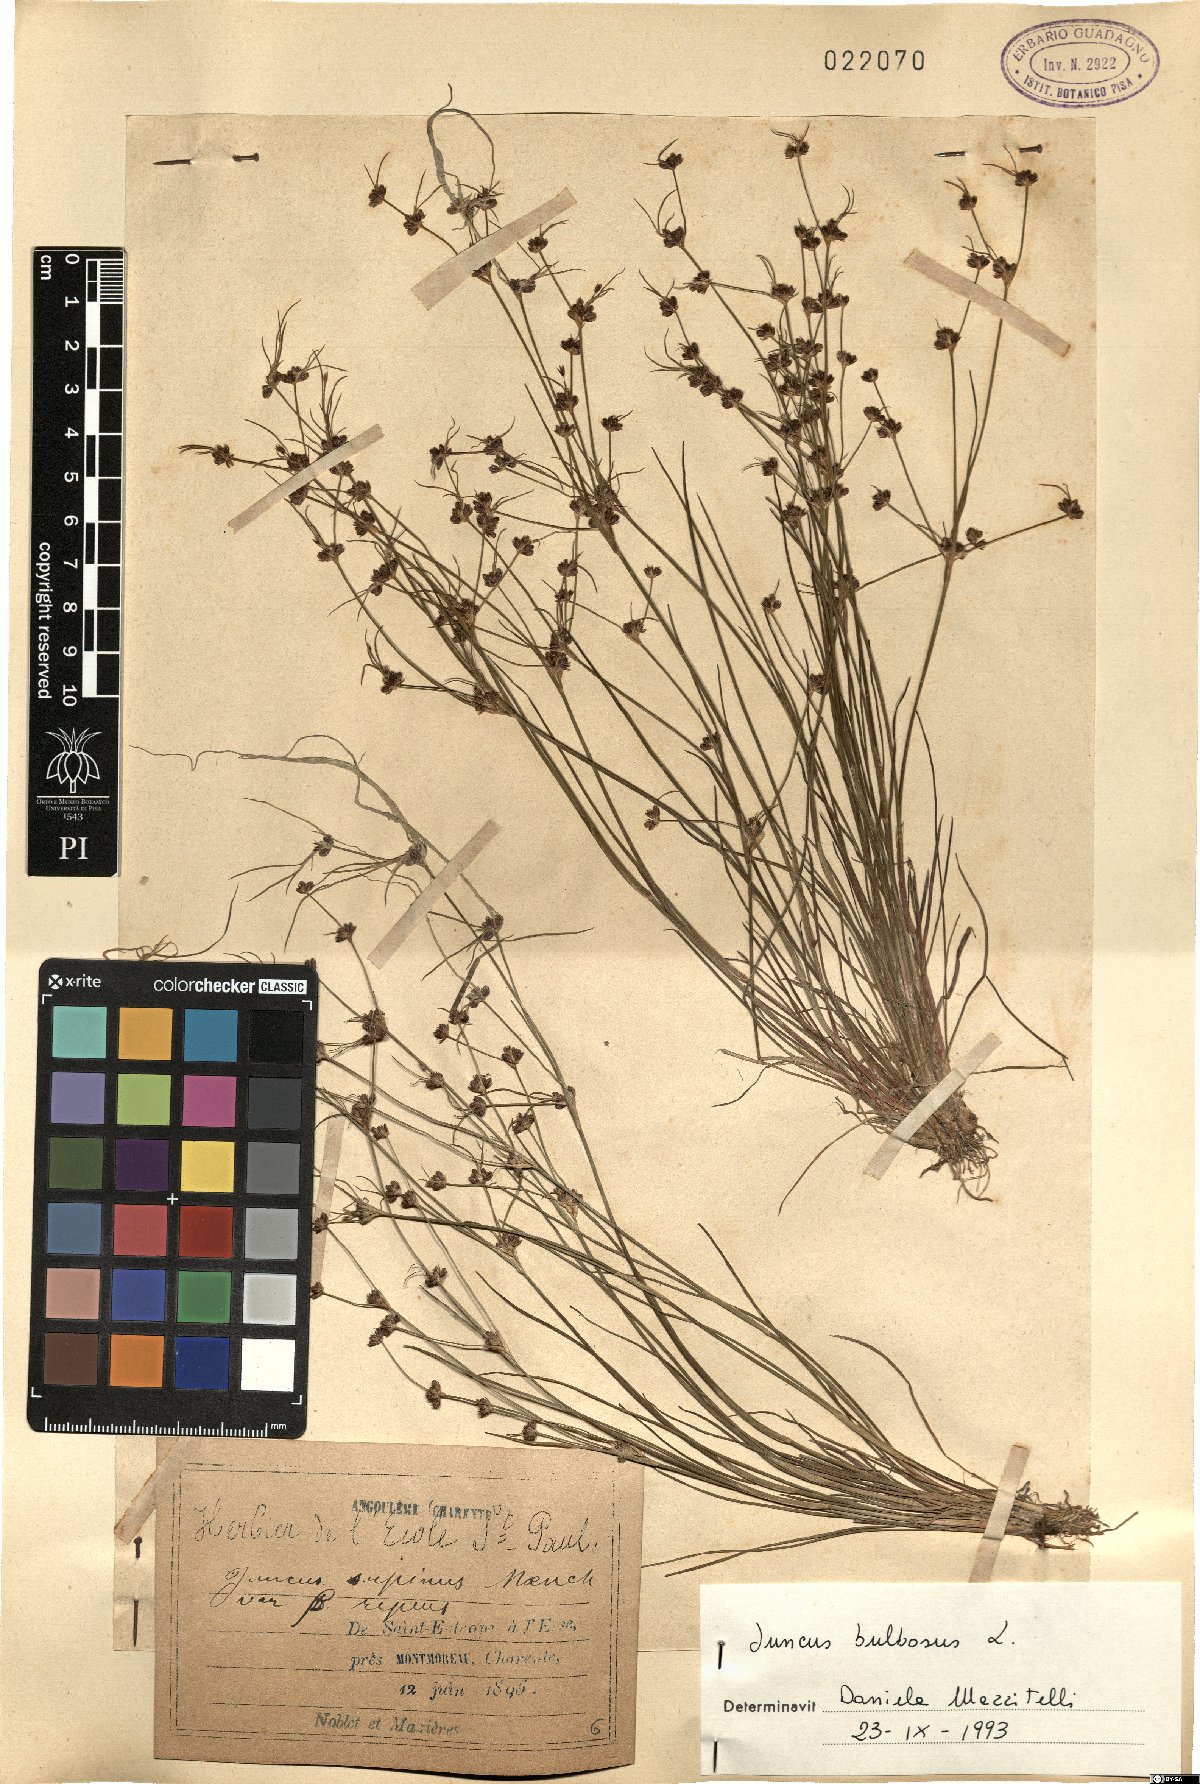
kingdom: Plantae
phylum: Tracheophyta
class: Liliopsida
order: Poales
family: Juncaceae
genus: Juncus
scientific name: Juncus bulbosus
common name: Bulbous rush
